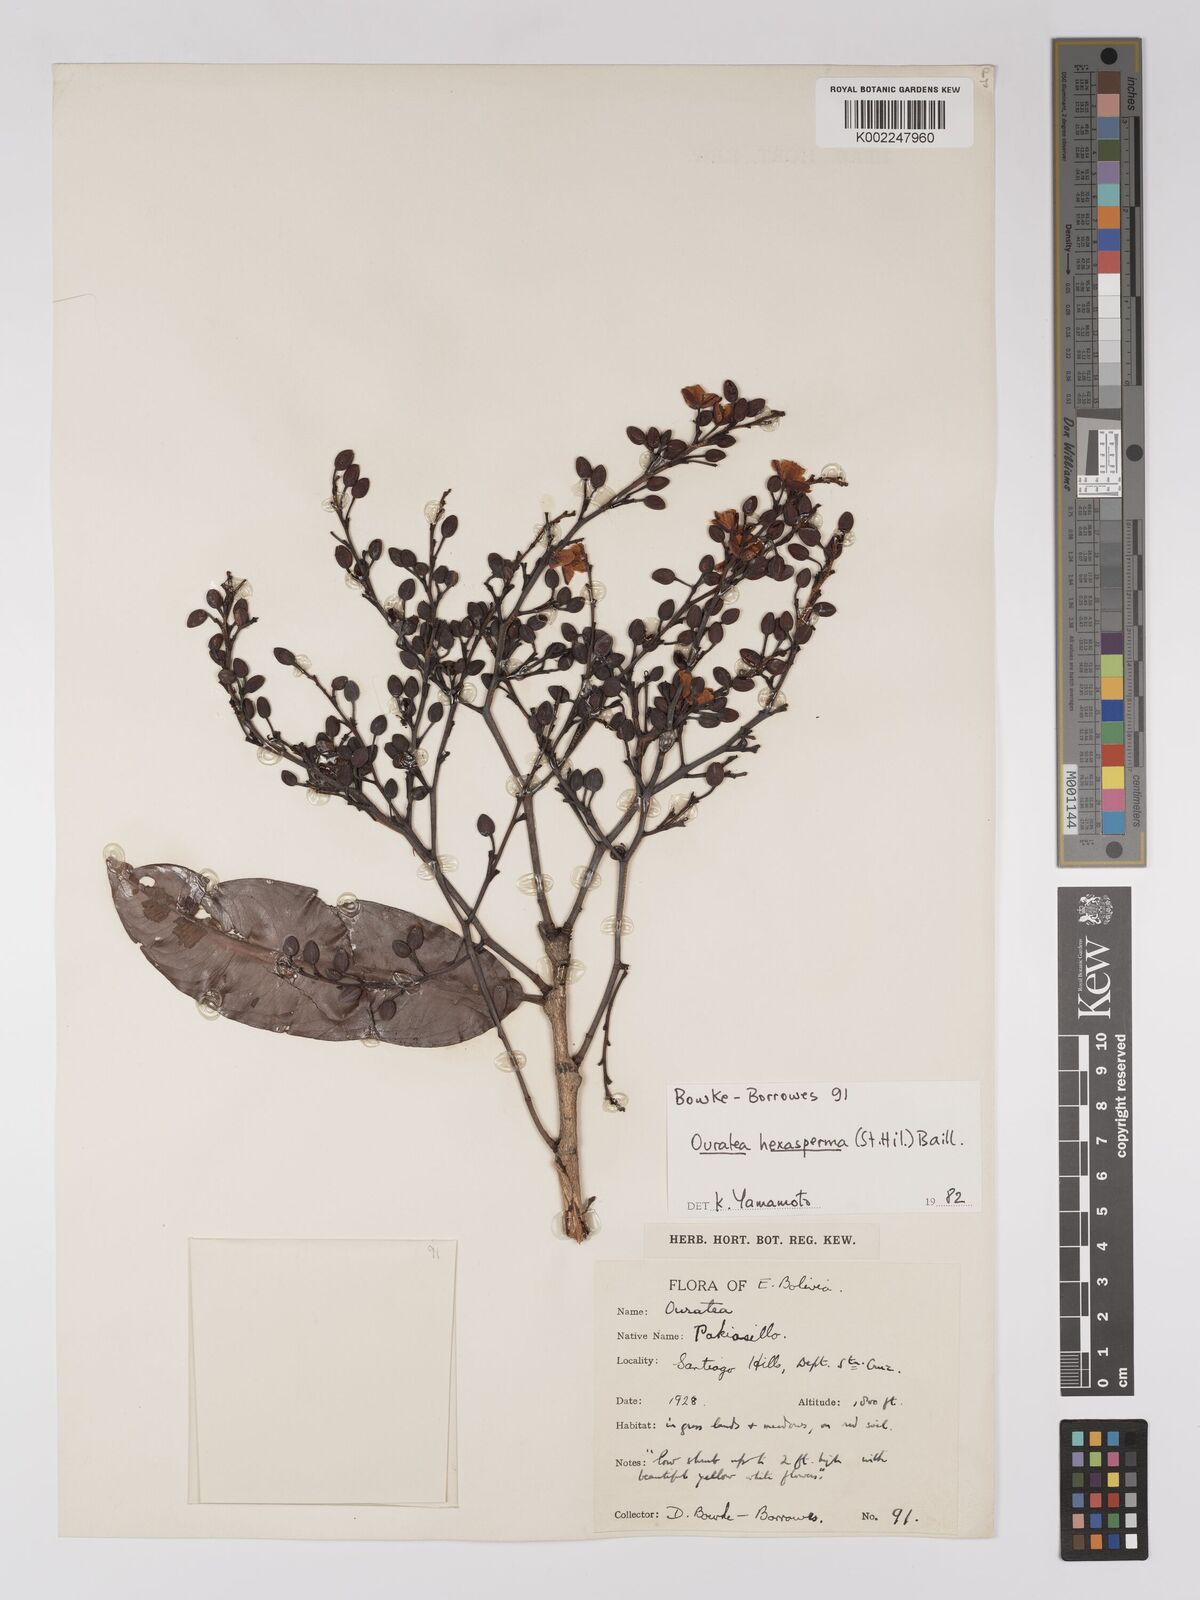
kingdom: Plantae
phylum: Tracheophyta
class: Magnoliopsida
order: Malpighiales
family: Ochnaceae
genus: Ouratea
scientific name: Ouratea hexasperma
